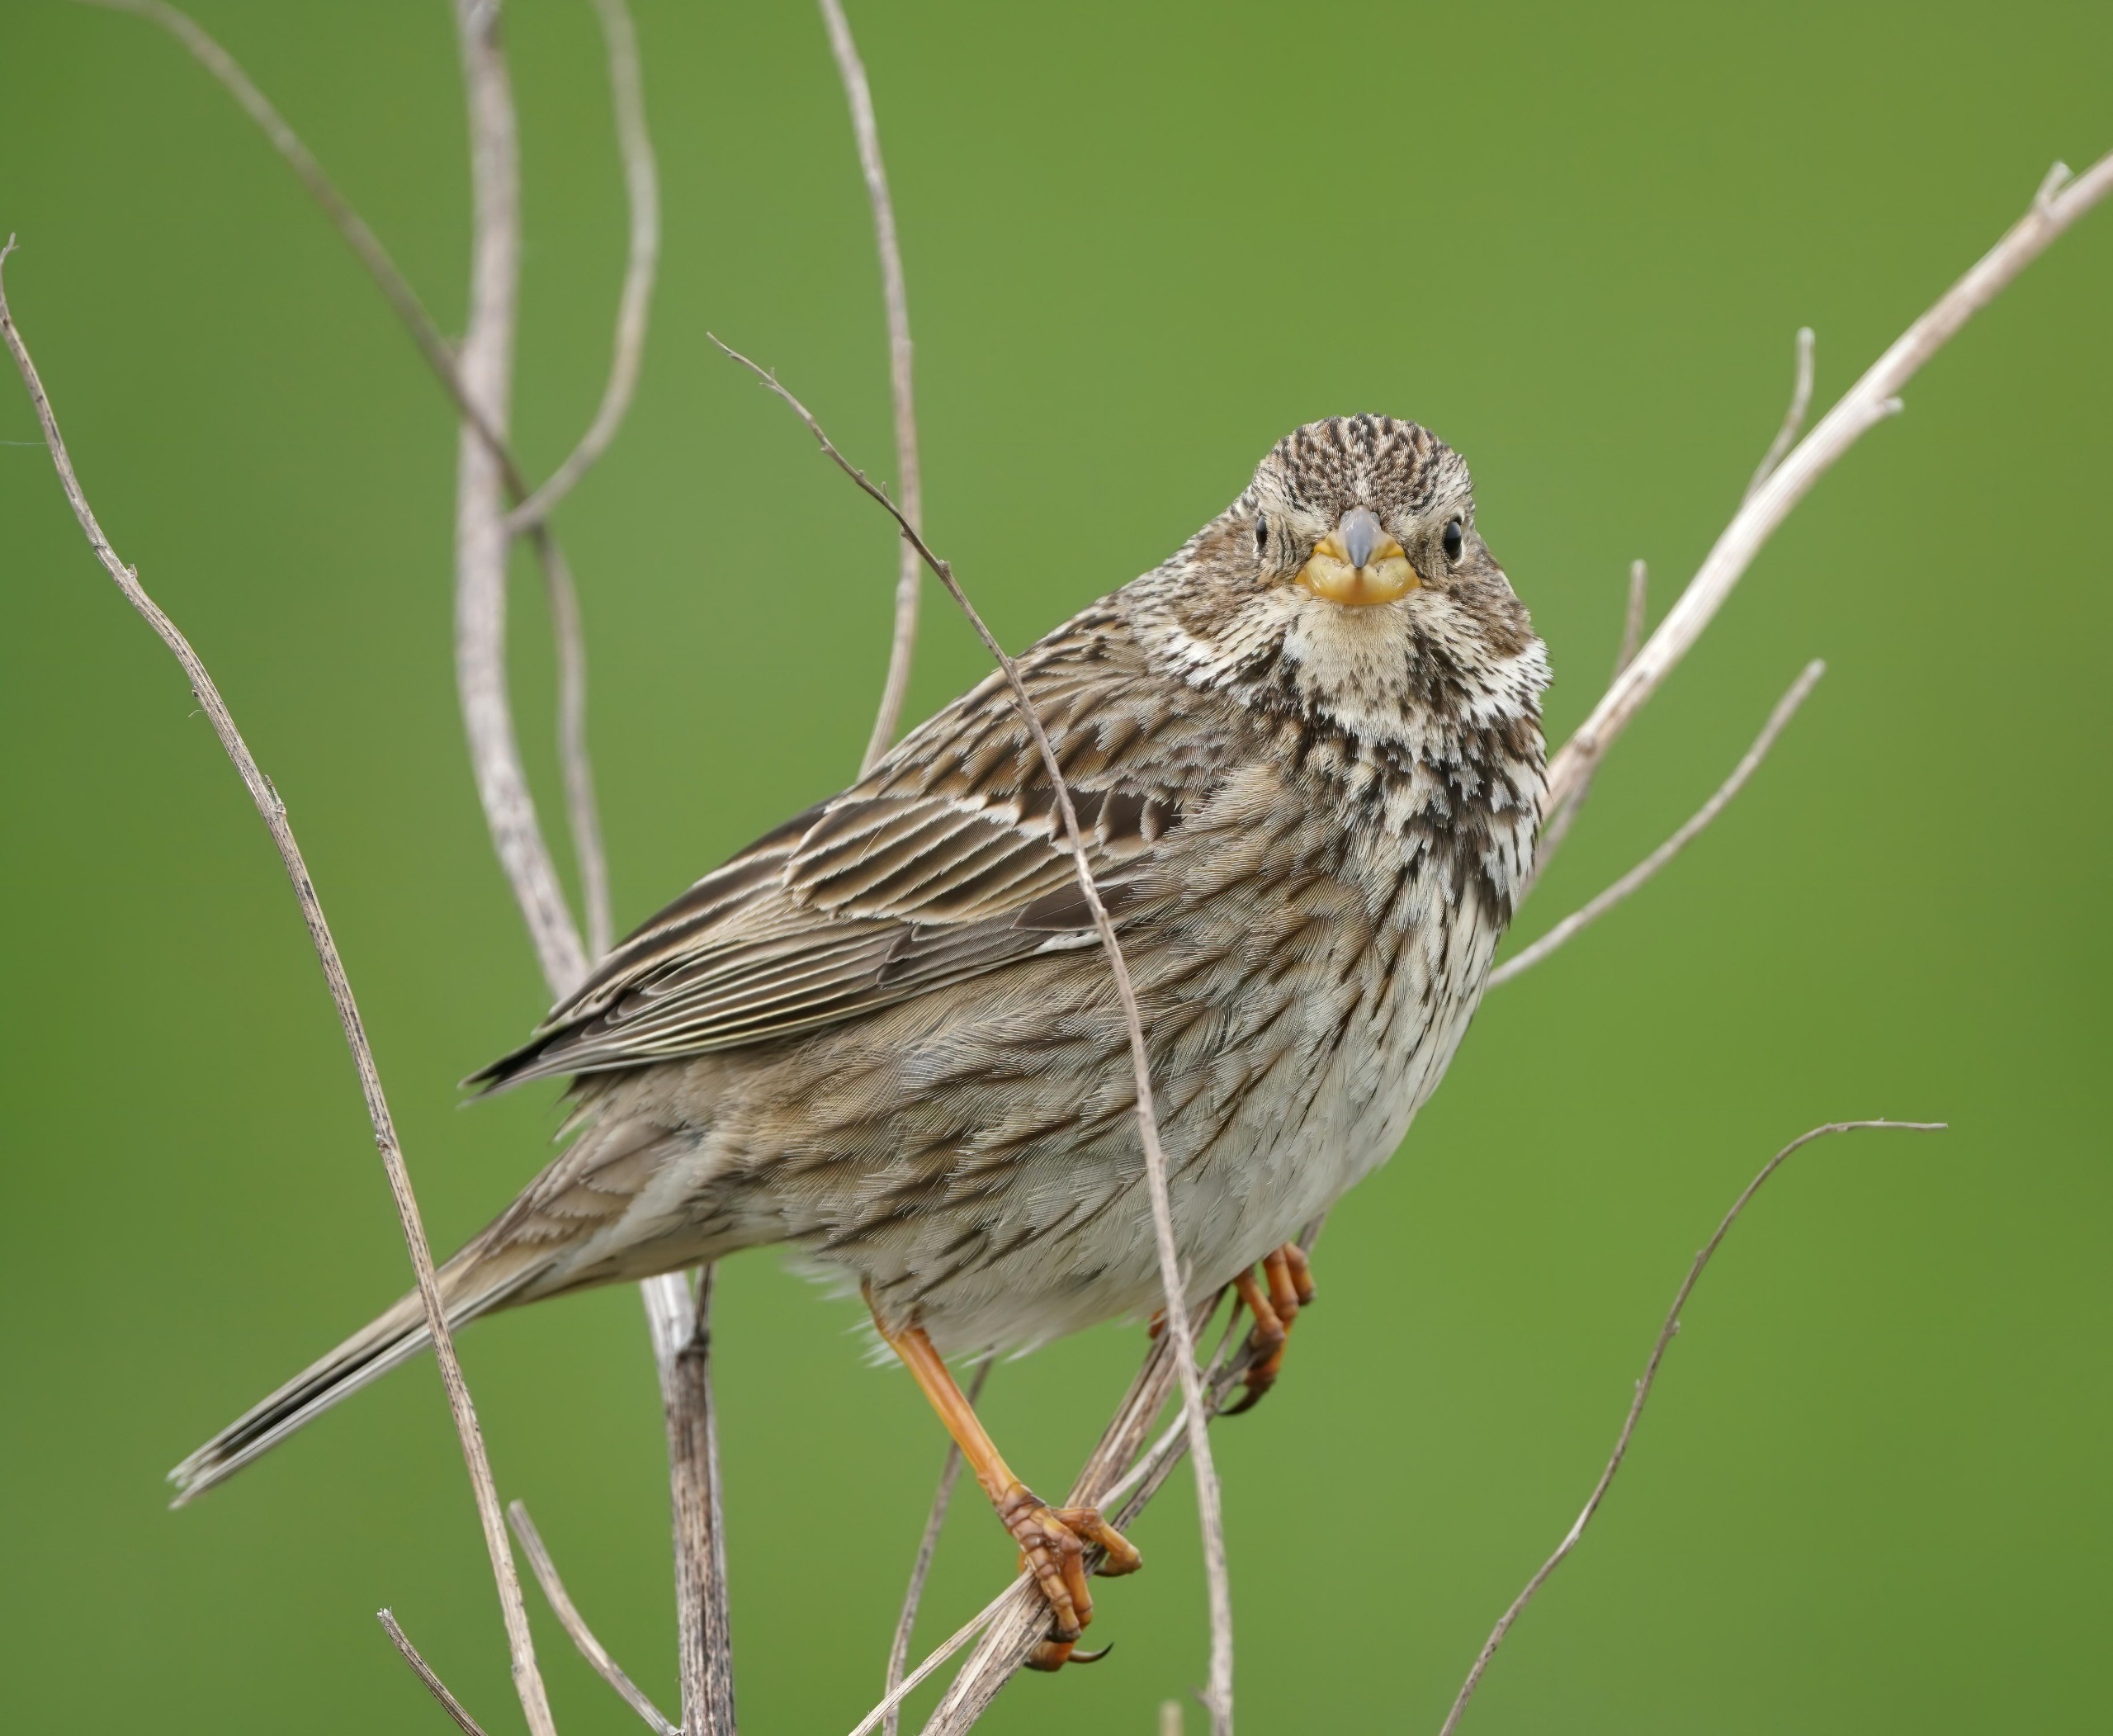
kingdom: Animalia
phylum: Chordata
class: Aves
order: Passeriformes
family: Emberizidae
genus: Emberiza
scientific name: Emberiza calandra
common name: Bomlærke
